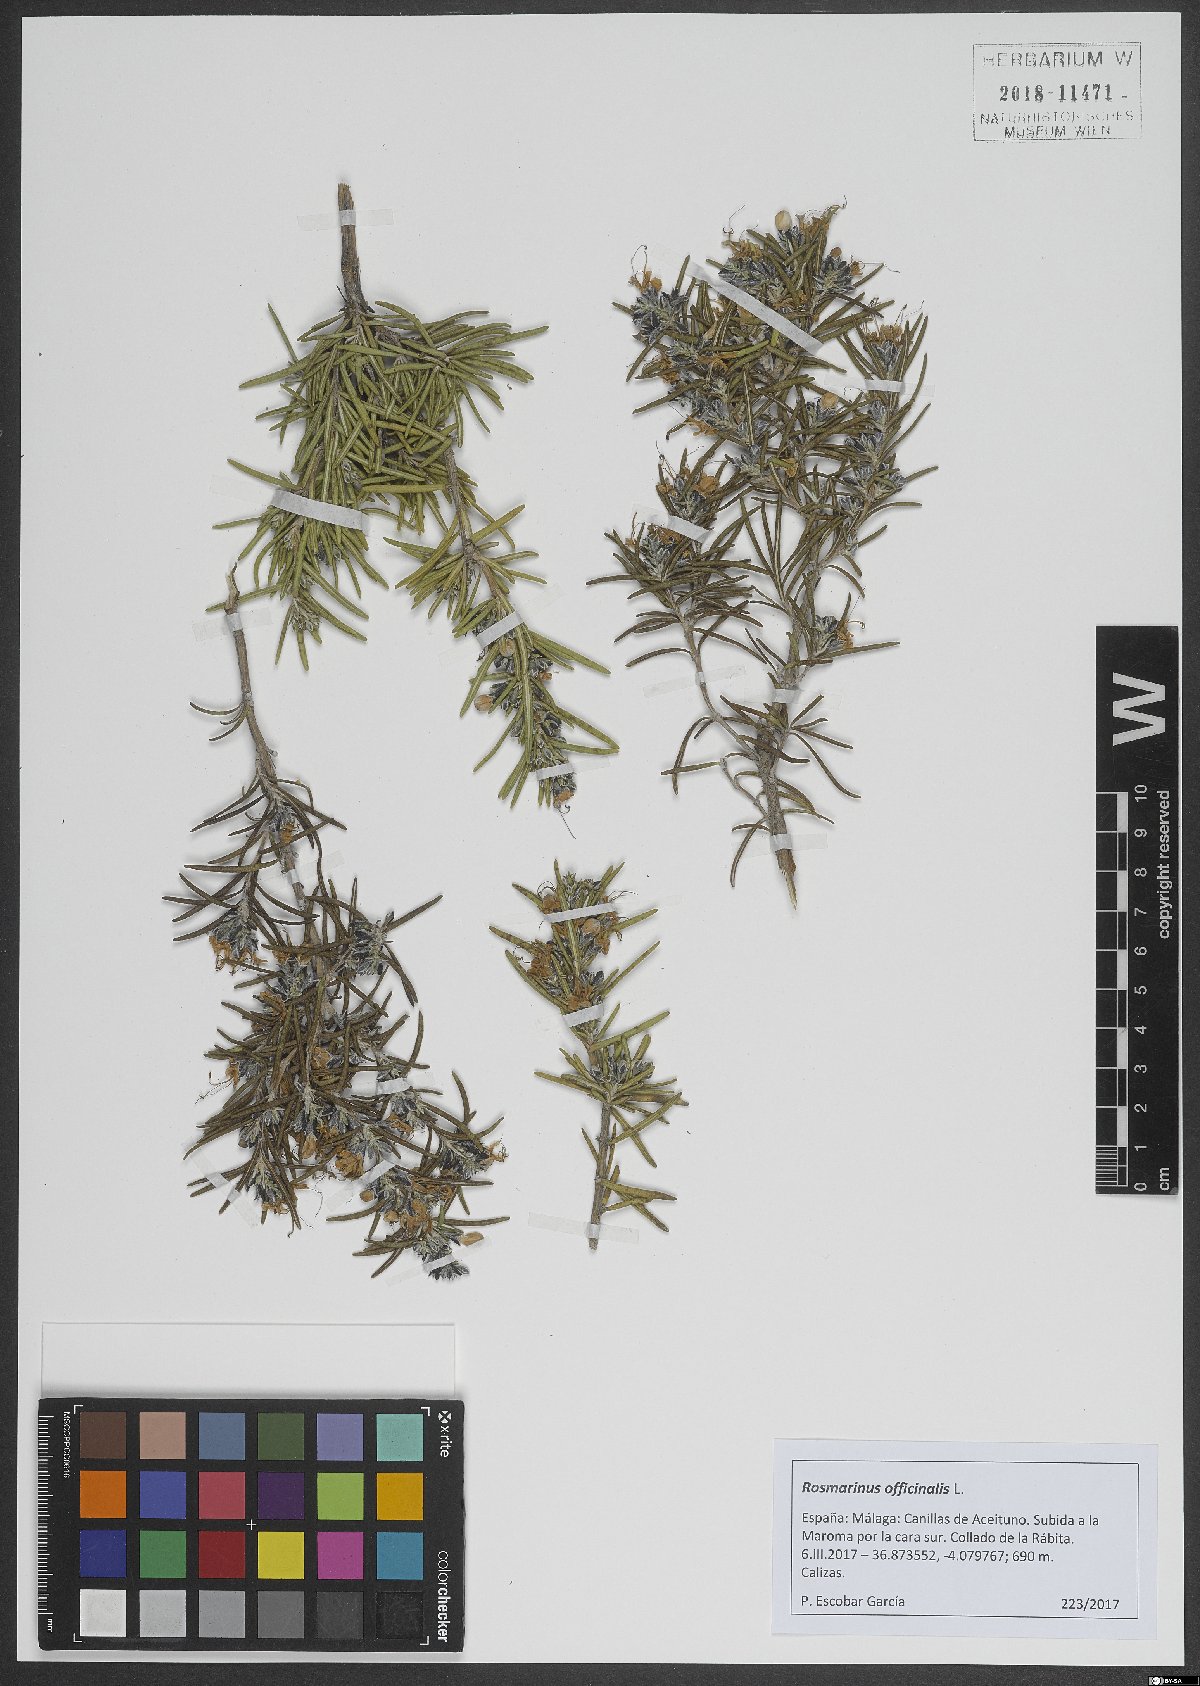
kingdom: Plantae
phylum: Tracheophyta
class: Magnoliopsida
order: Lamiales
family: Lamiaceae
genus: Salvia
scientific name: Salvia rosmarinus
